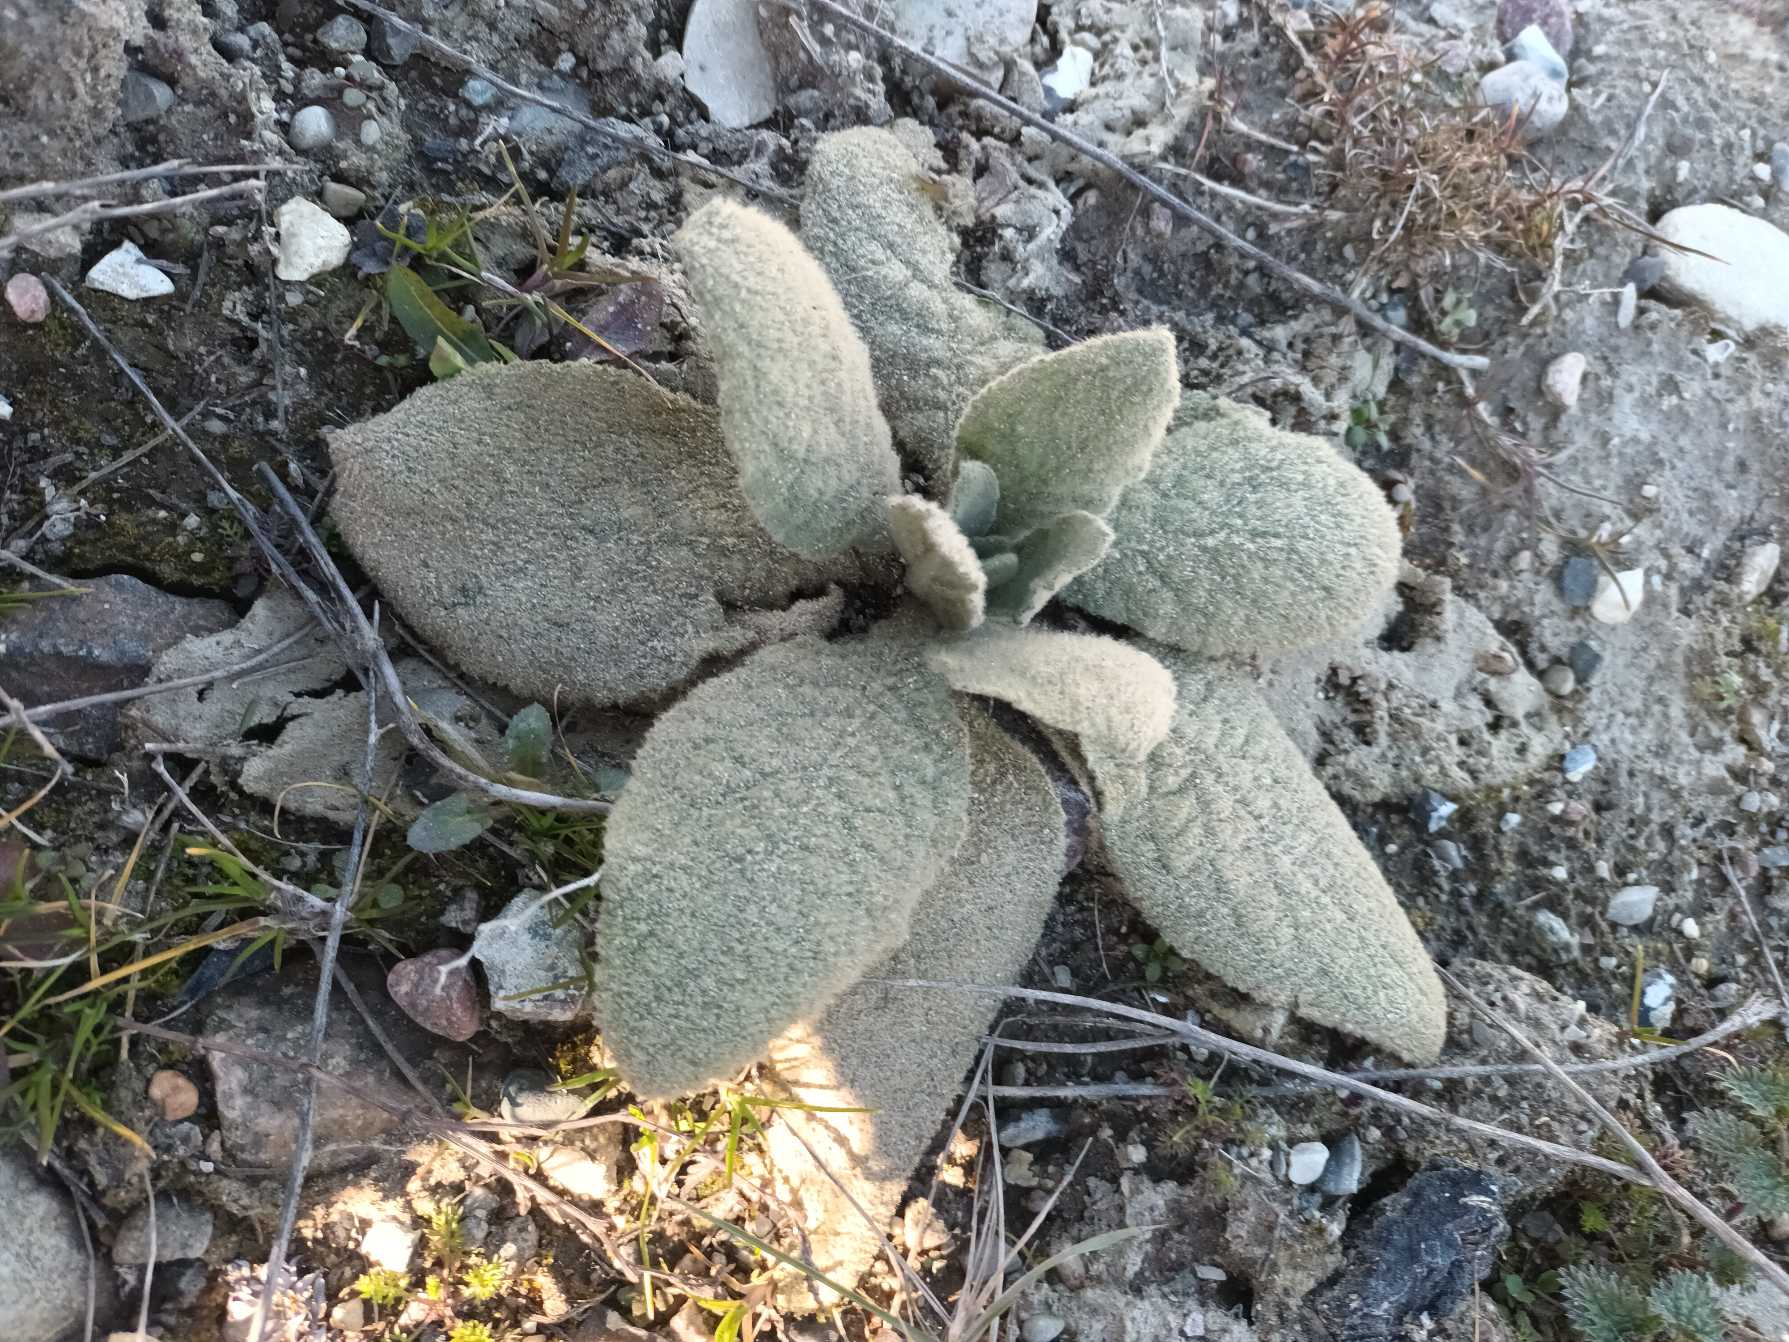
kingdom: Plantae
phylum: Tracheophyta
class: Magnoliopsida
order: Lamiales
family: Scrophulariaceae
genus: Verbascum
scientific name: Verbascum thapsus
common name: Filtbladet kongelys
